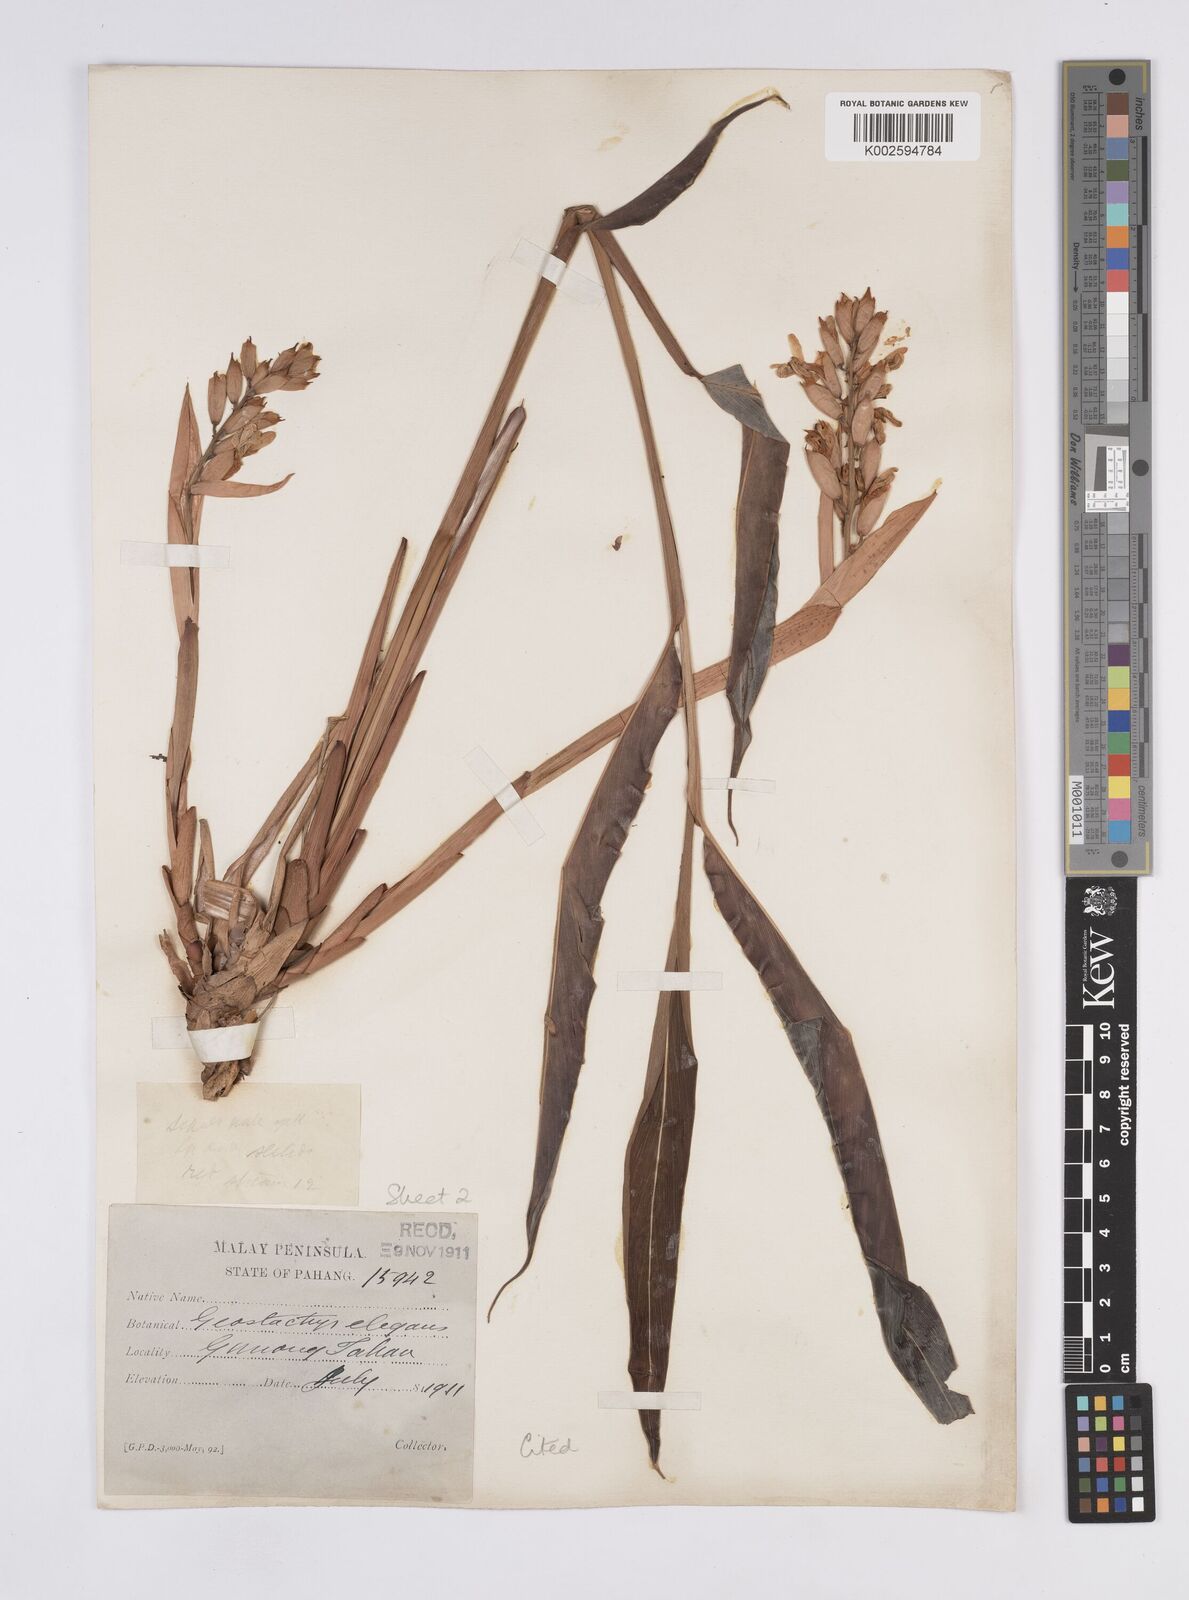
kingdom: Plantae
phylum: Tracheophyta
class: Liliopsida
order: Zingiberales
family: Zingiberaceae
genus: Geostachys
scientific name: Geostachys elegans
